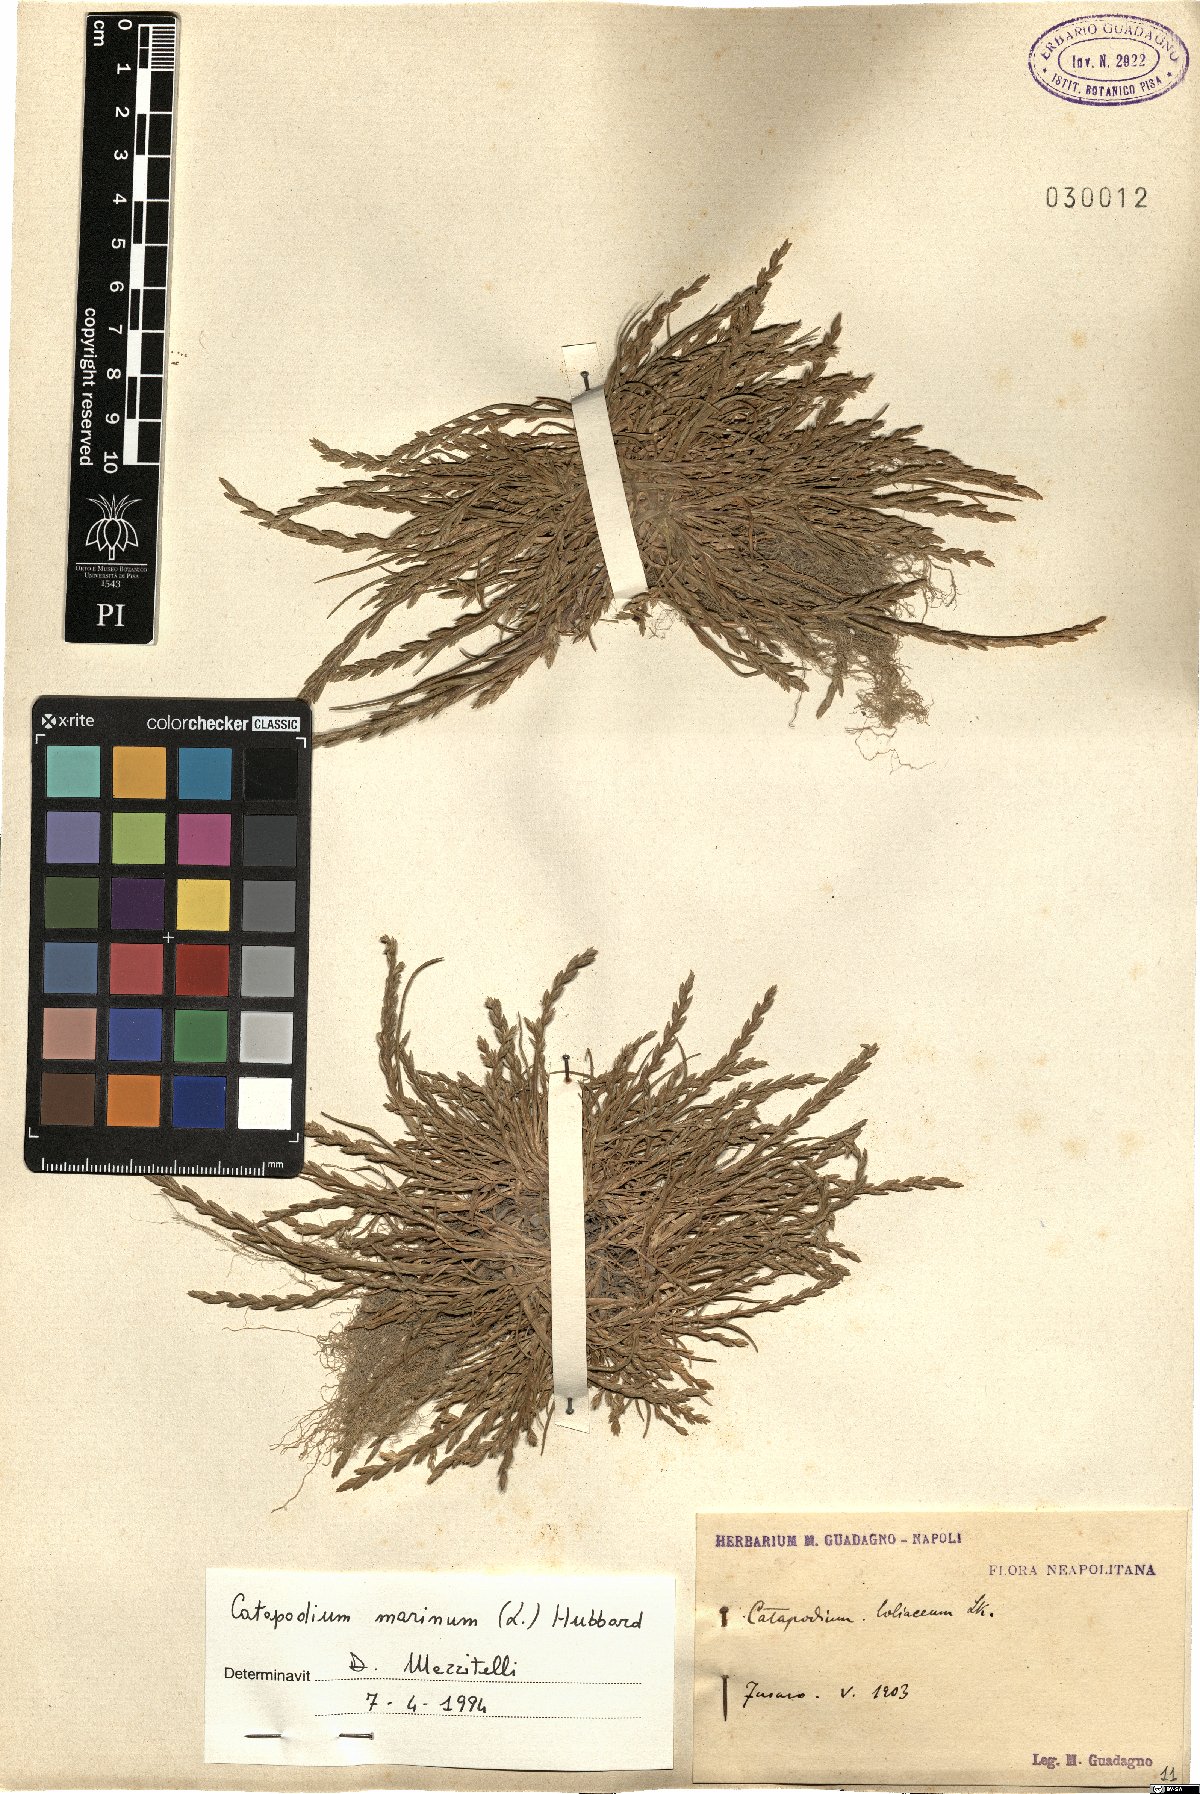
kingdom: Plantae
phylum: Tracheophyta
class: Liliopsida
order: Poales
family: Poaceae
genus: Catapodium
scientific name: Catapodium marinum
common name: Sea fern-grass
